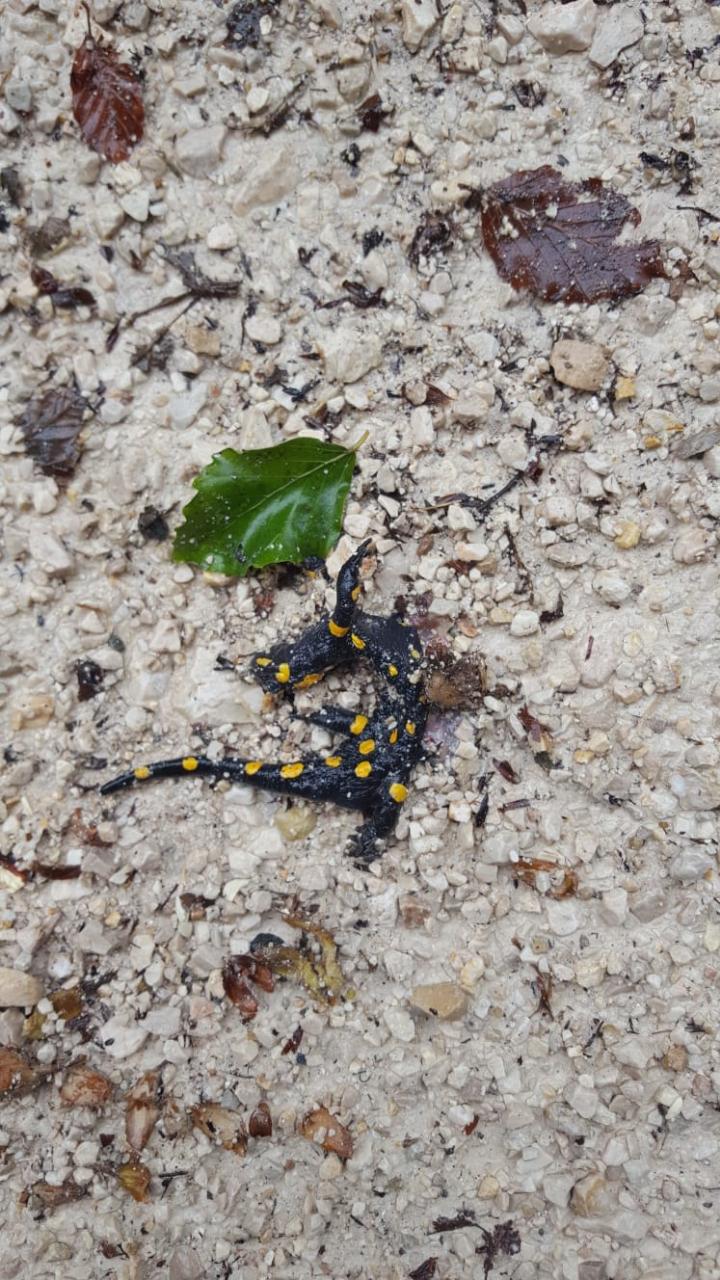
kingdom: Animalia
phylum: Chordata
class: Amphibia
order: Caudata
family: Salamandridae
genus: Salamandra
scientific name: Salamandra salamandra
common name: Fire salamander
